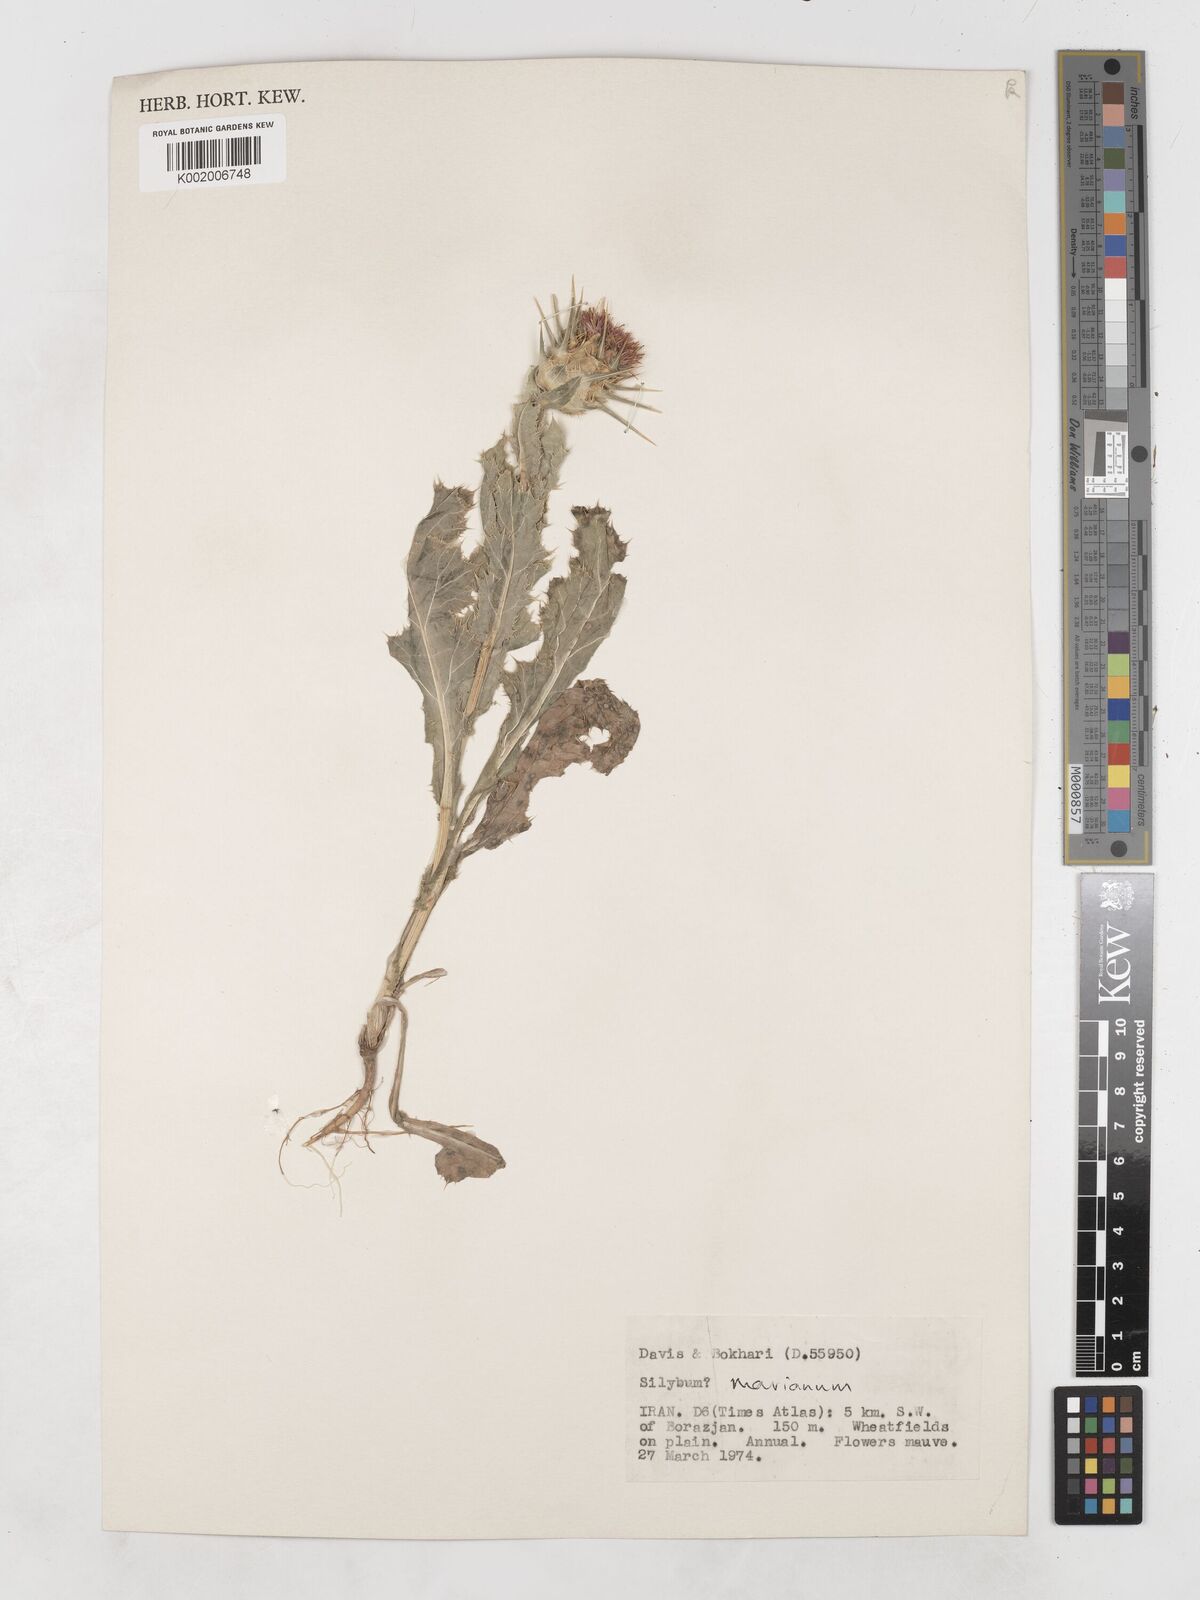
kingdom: Plantae
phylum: Tracheophyta
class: Magnoliopsida
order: Asterales
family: Asteraceae
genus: Silybum
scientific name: Silybum marianum
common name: Milk thistle
